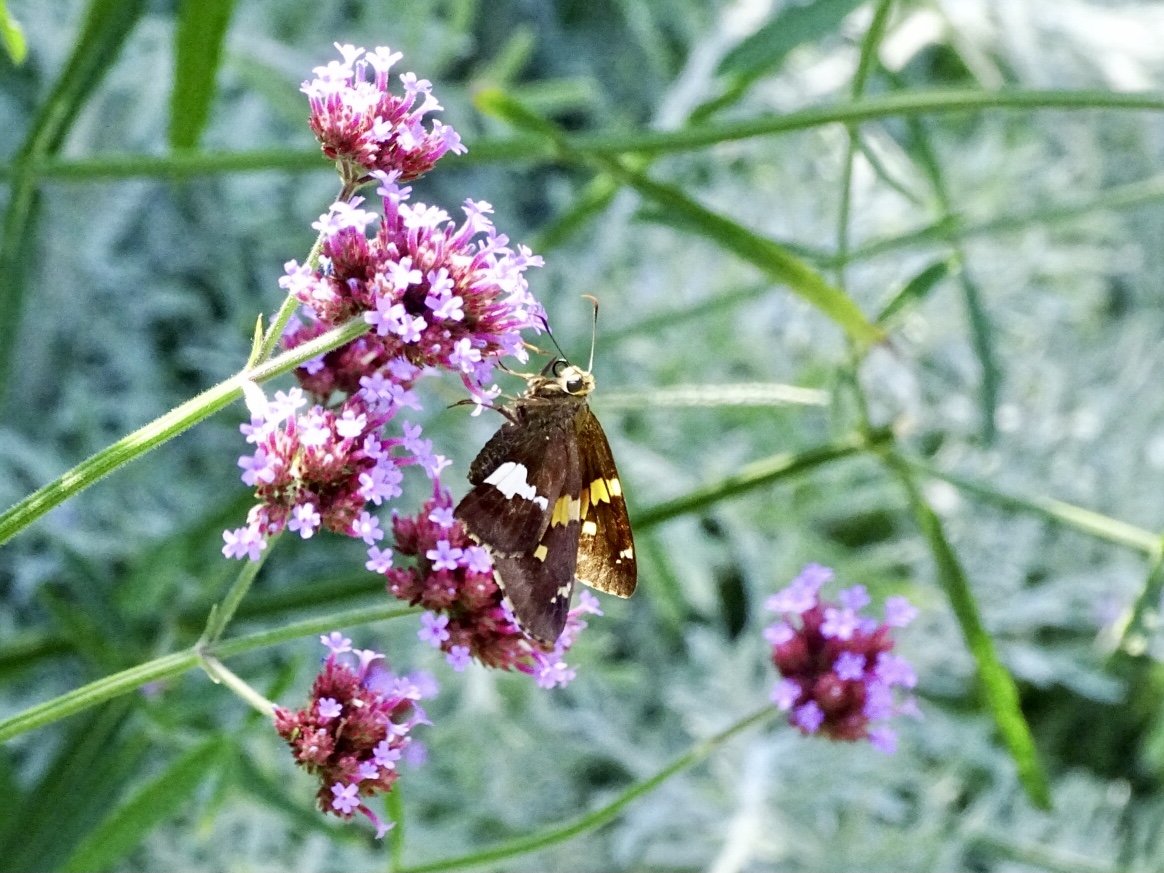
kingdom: Animalia
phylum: Arthropoda
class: Insecta
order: Lepidoptera
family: Hesperiidae
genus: Epargyreus
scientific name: Epargyreus clarus
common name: Silver-spotted Skipper
